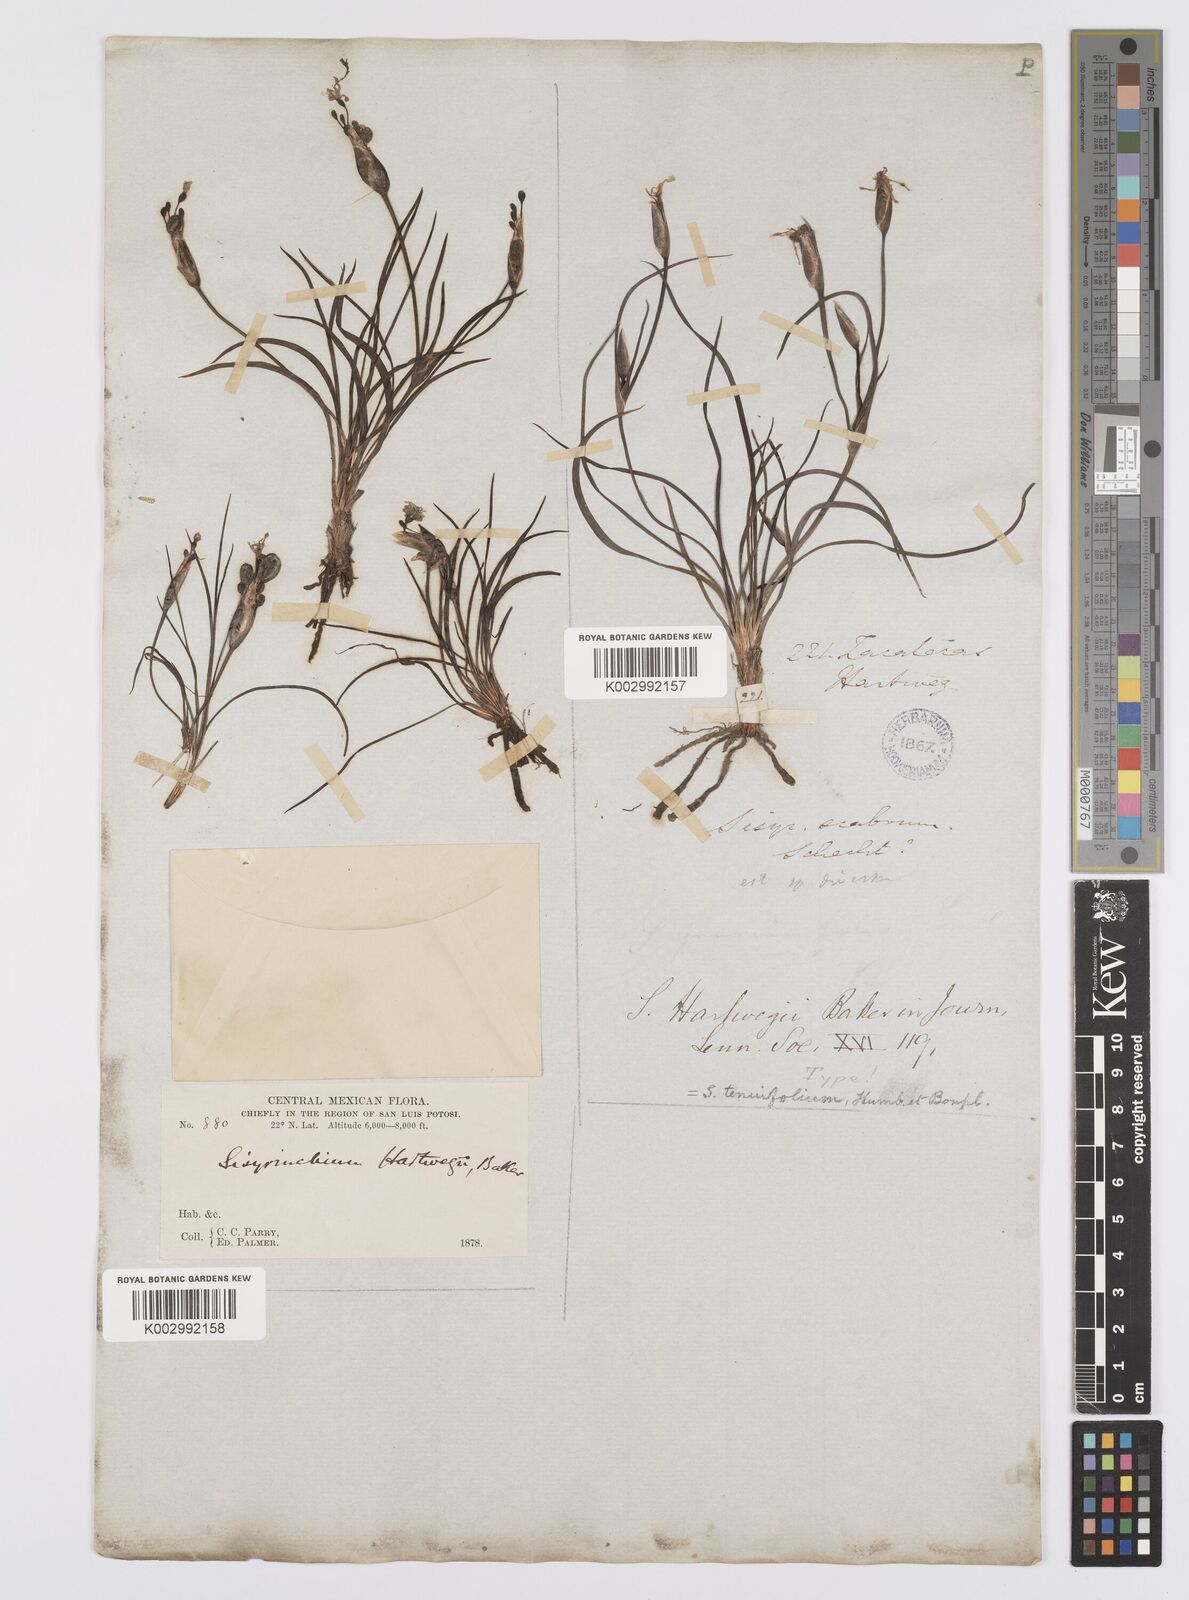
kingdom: Plantae
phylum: Tracheophyta
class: Liliopsida
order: Asparagales
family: Iridaceae
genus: Sisyrinchium
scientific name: Sisyrinchium tenuifolium
